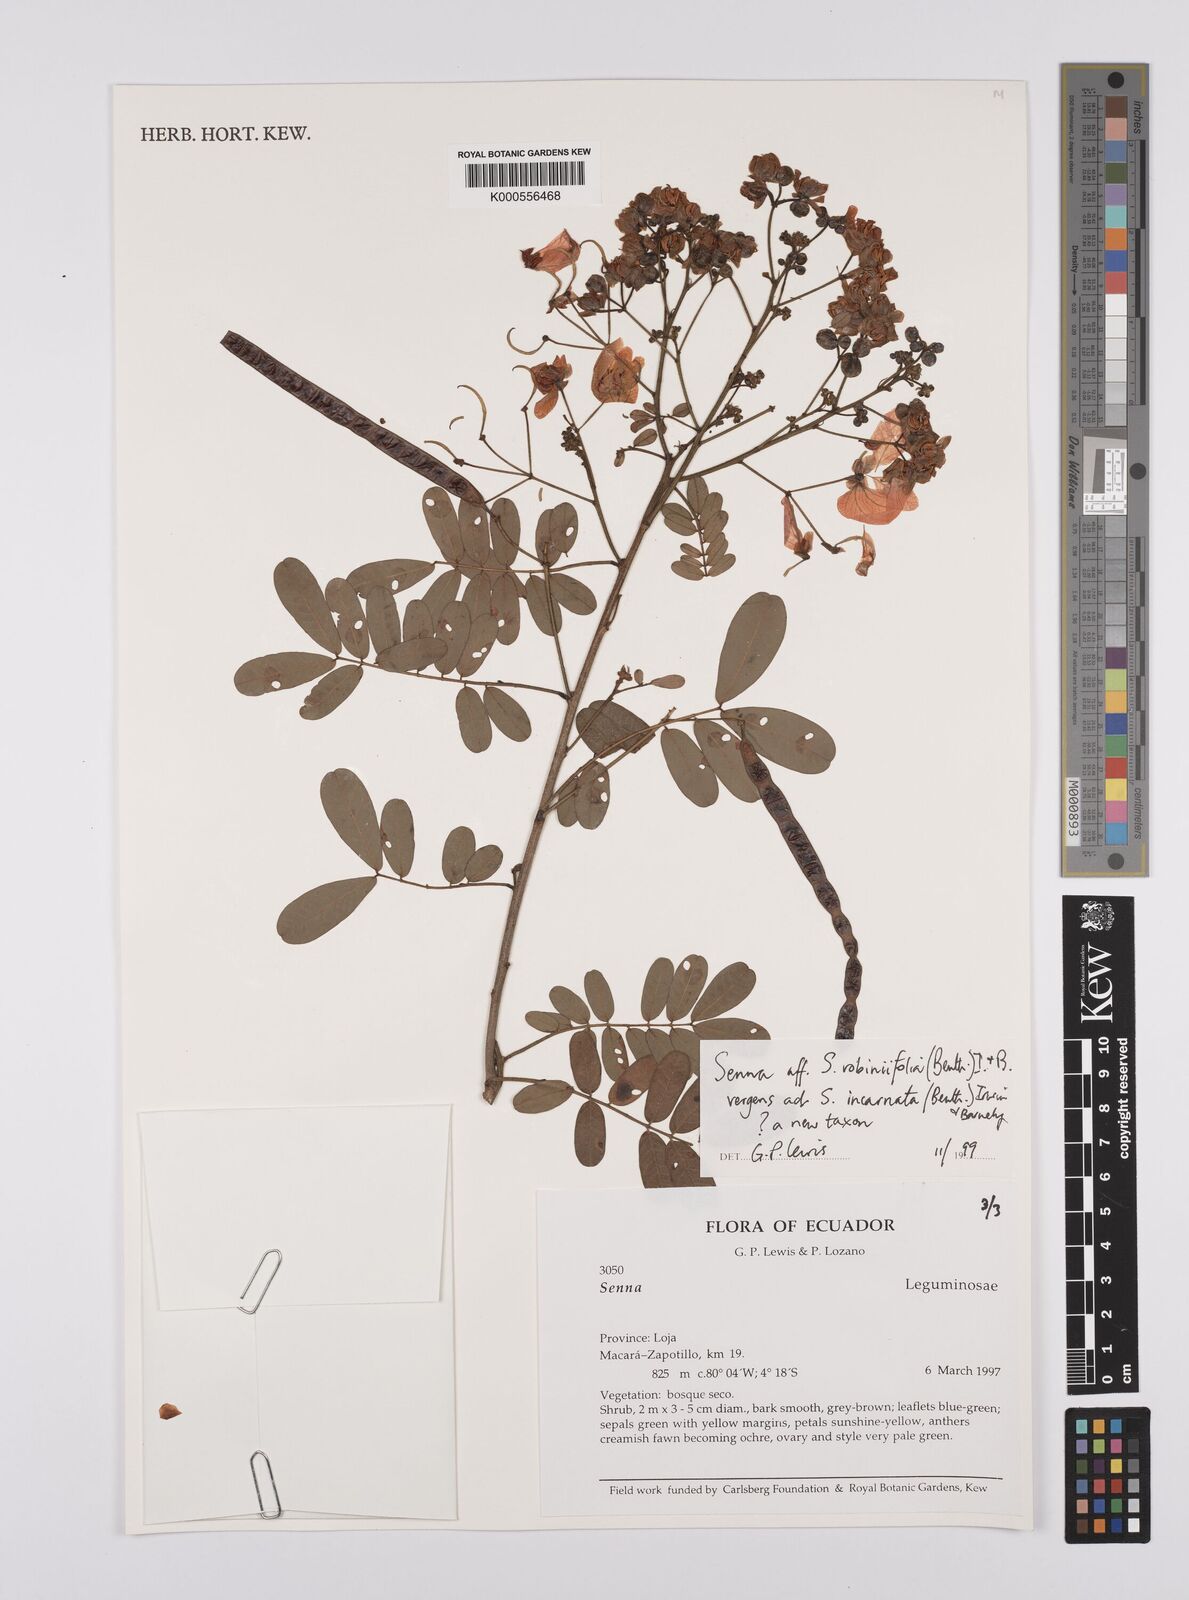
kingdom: Plantae
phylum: Tracheophyta
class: Magnoliopsida
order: Fabales
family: Fabaceae
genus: Senna
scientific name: Senna robiniifolia
